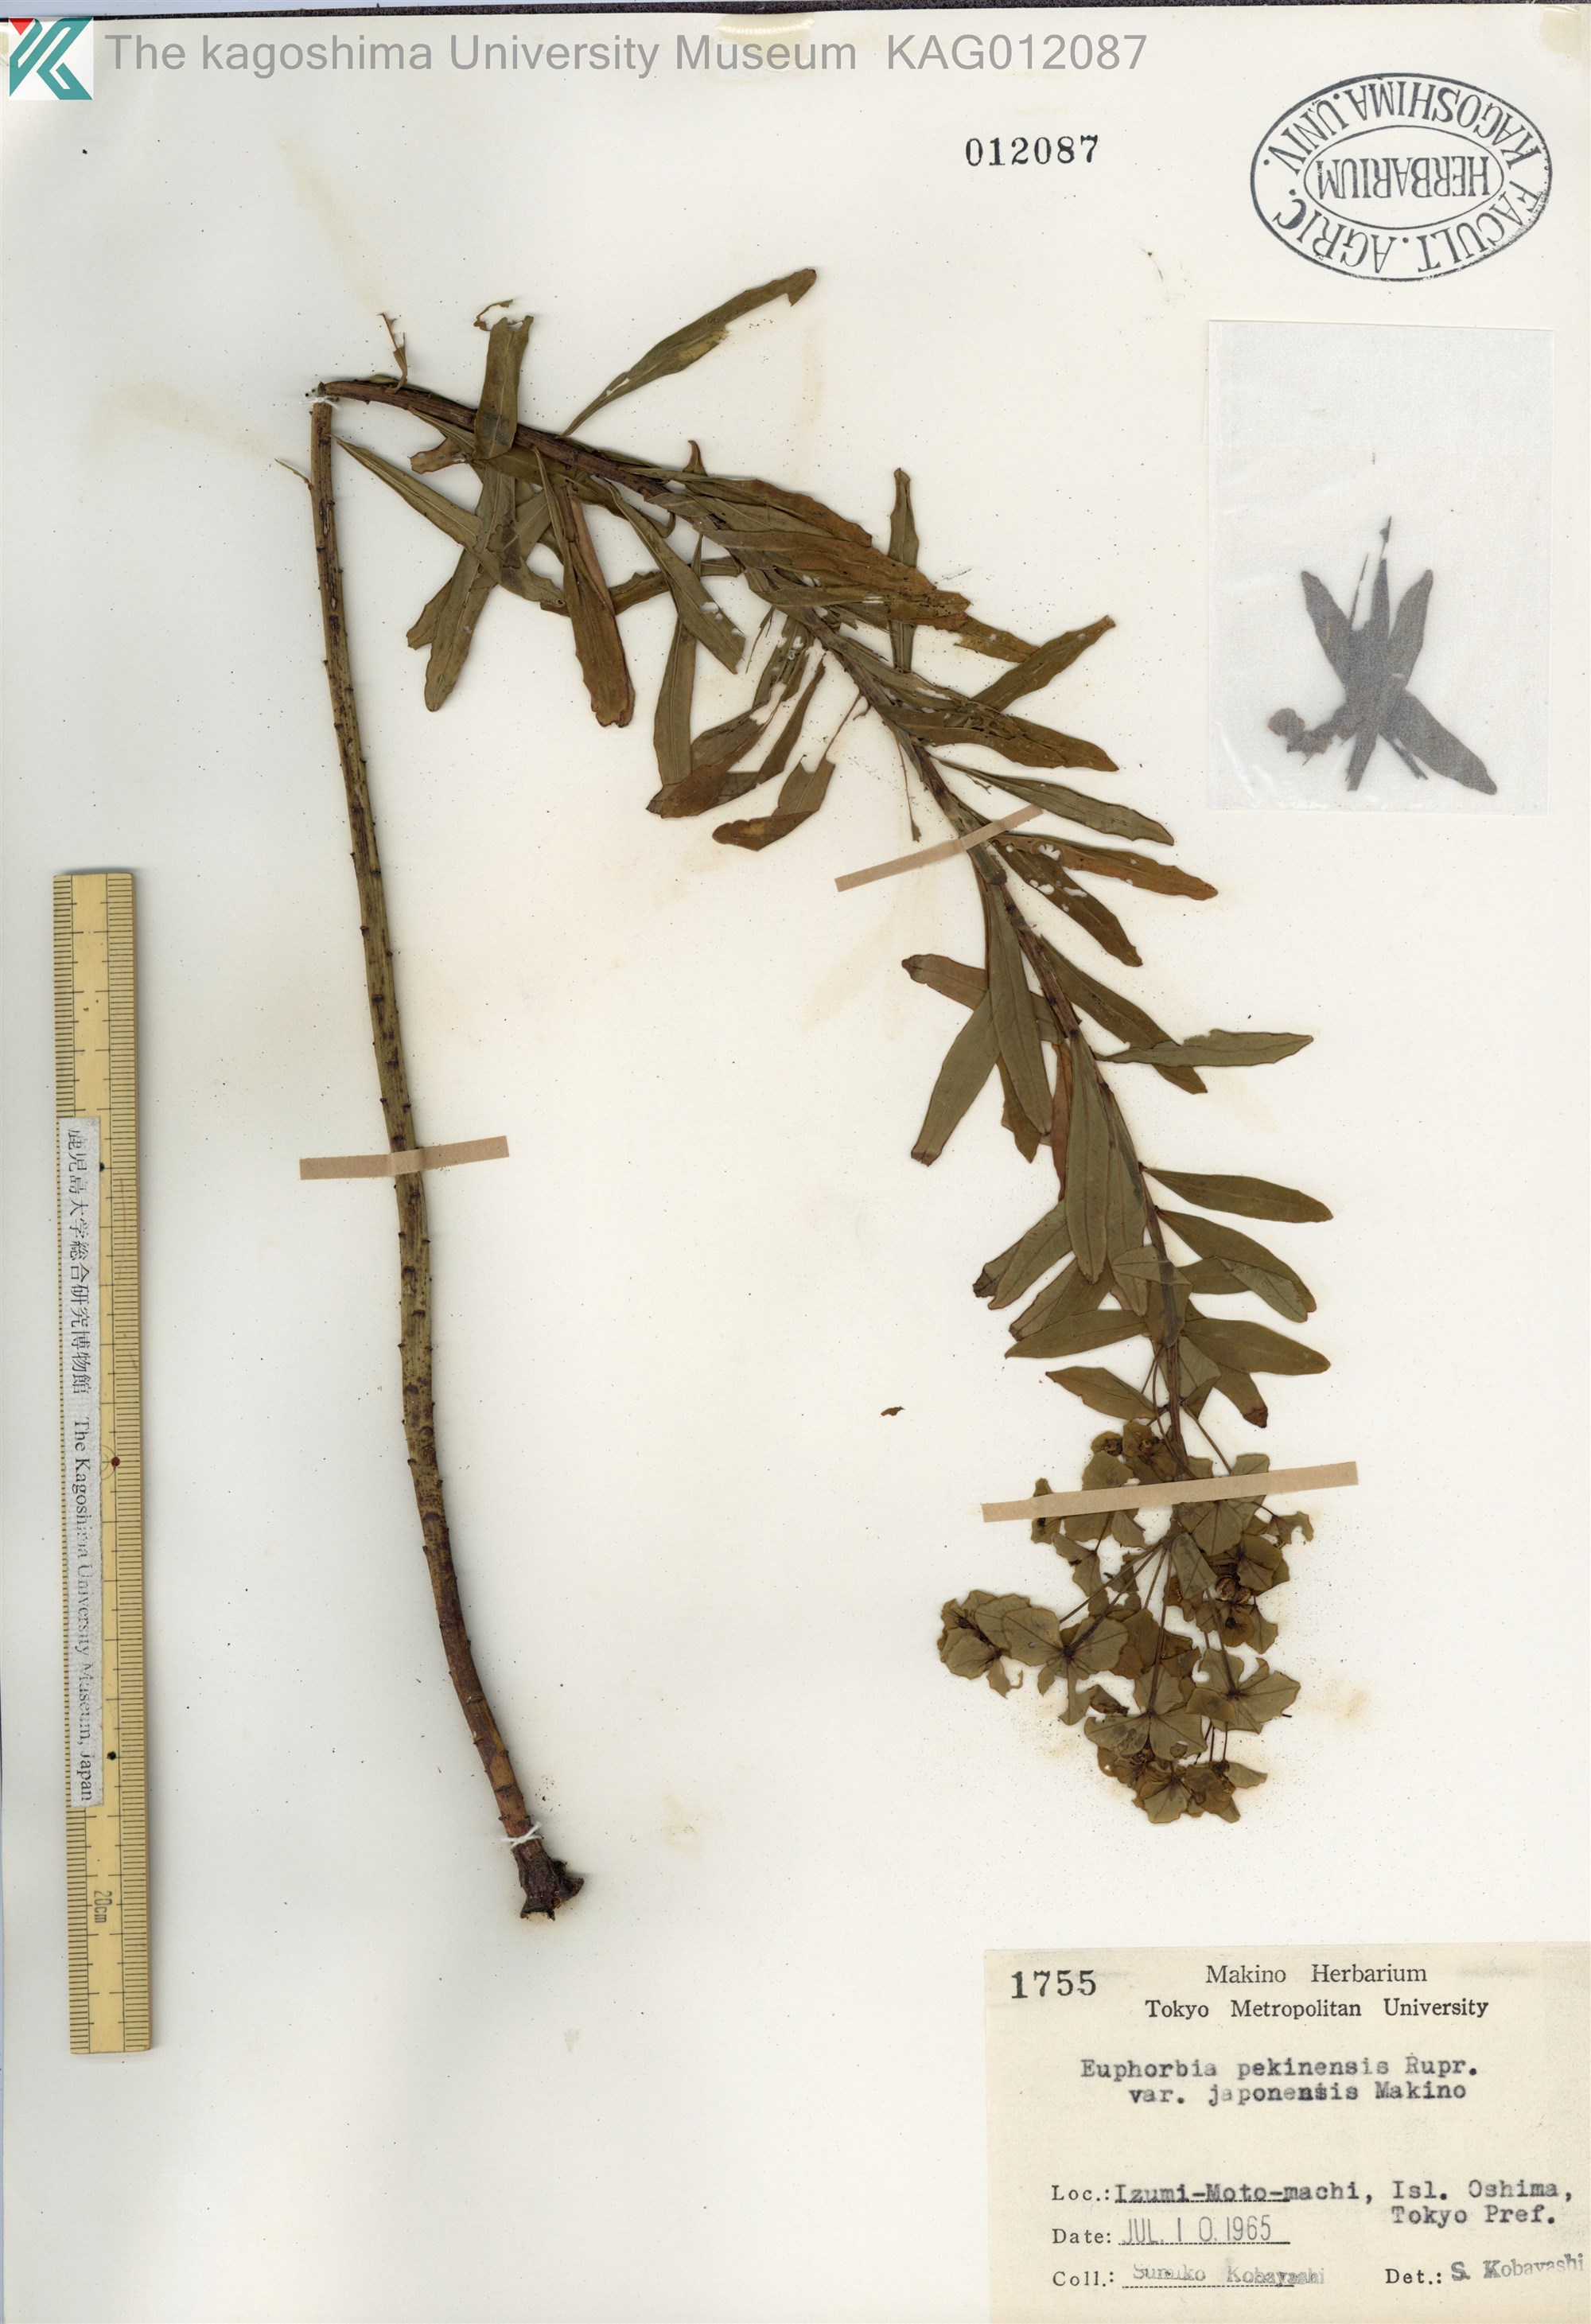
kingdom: Plantae
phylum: Tracheophyta
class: Magnoliopsida
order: Malpighiales
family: Euphorbiaceae
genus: Euphorbia
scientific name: Euphorbia pekinensis
